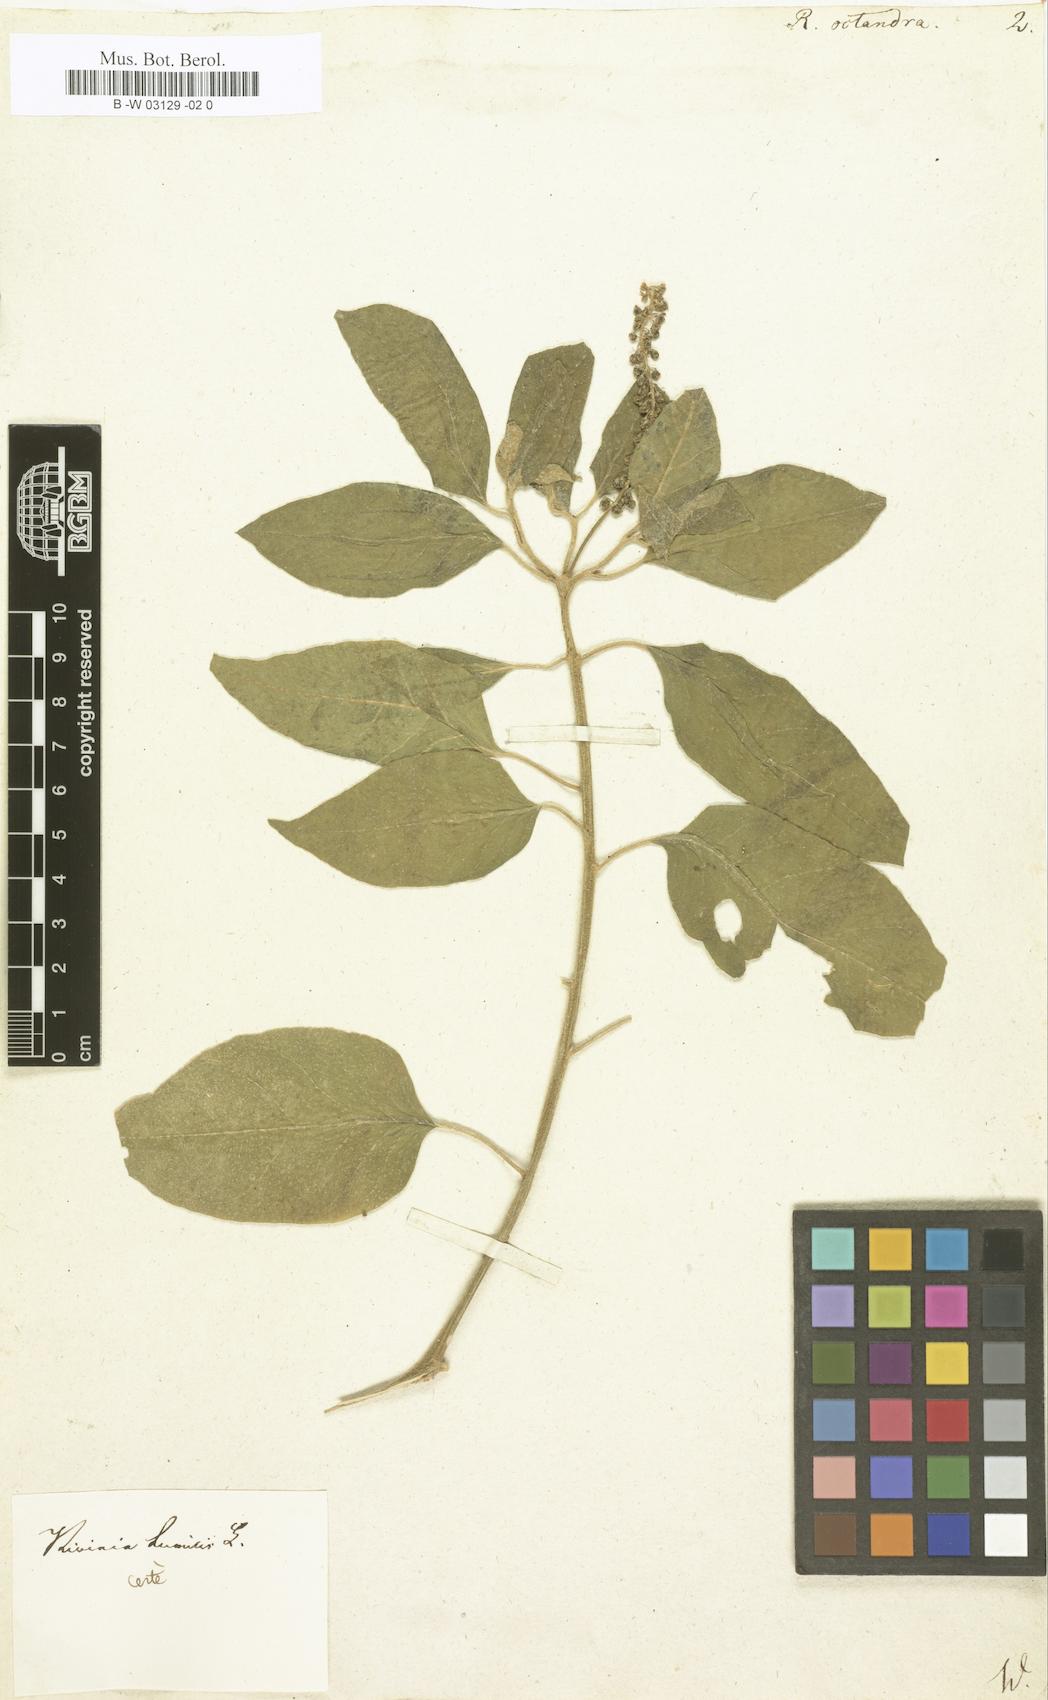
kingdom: Plantae
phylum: Tracheophyta
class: Magnoliopsida
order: Caryophyllales
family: Phytolaccaceae
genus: Trichostigma
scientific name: Trichostigma octandrum
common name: Basket wiss
